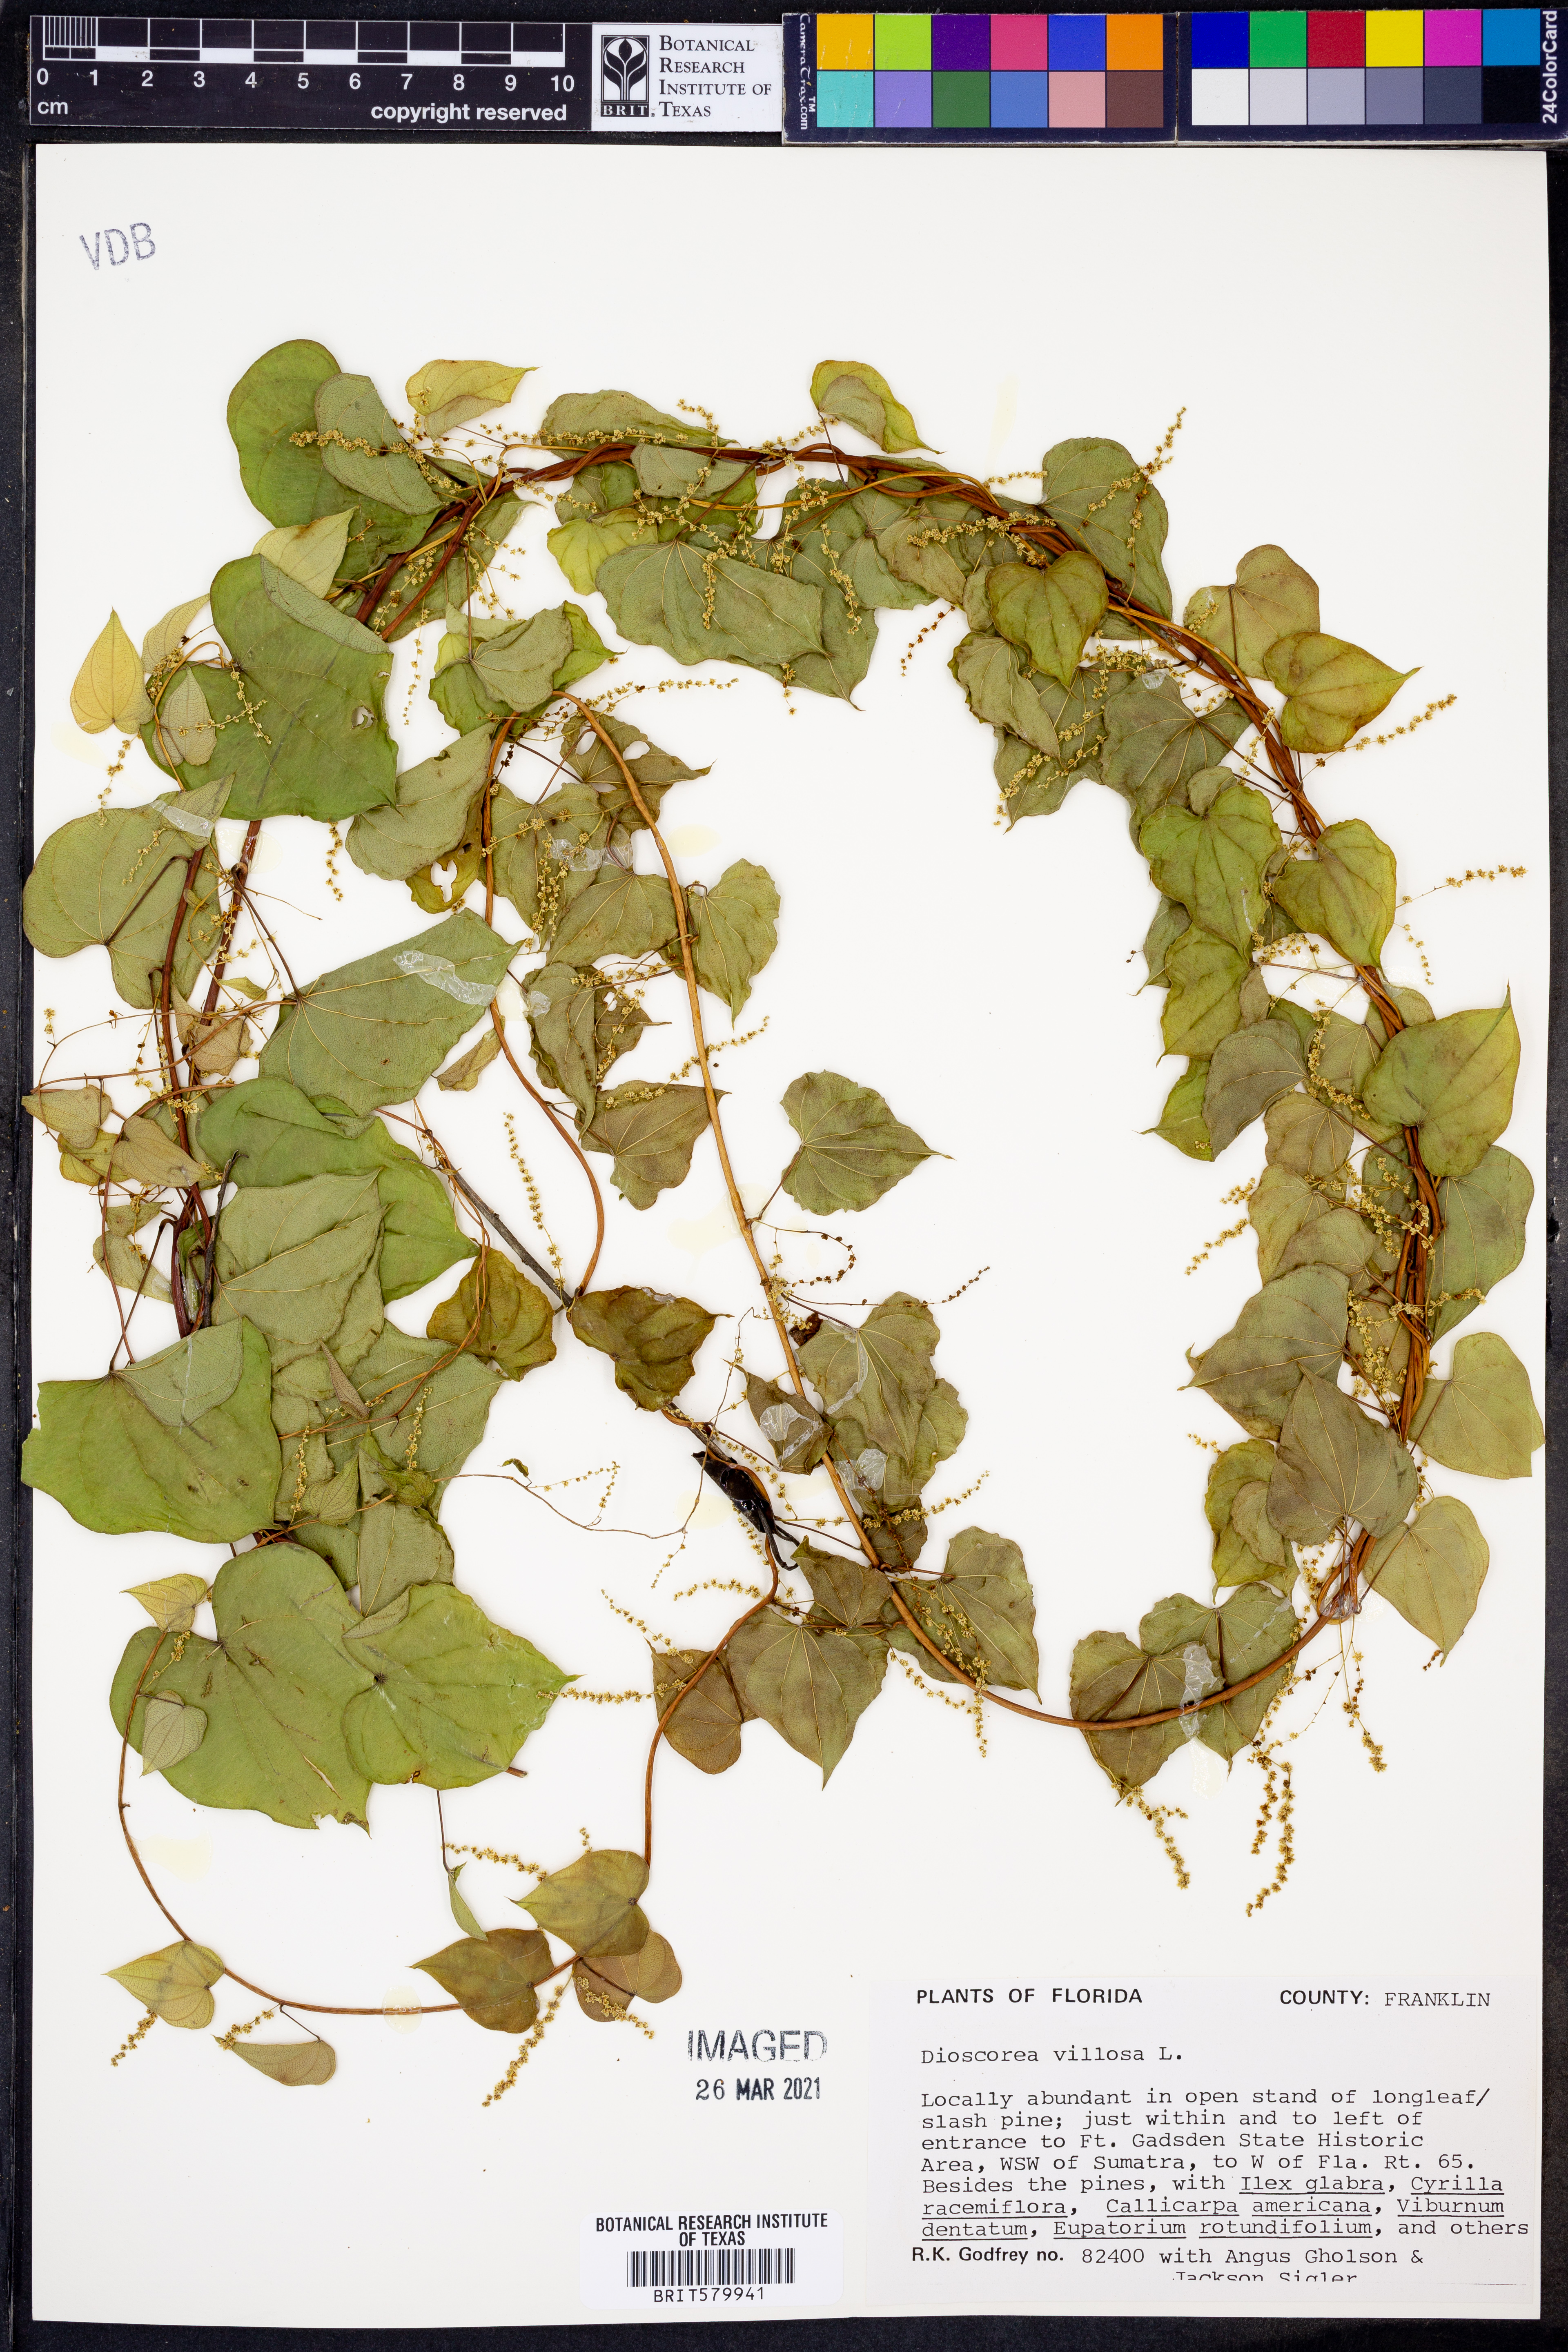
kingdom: Plantae
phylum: Tracheophyta
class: Liliopsida
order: Dioscoreales
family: Dioscoreaceae
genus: Dioscorea
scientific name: Dioscorea villosa
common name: Wild yam
